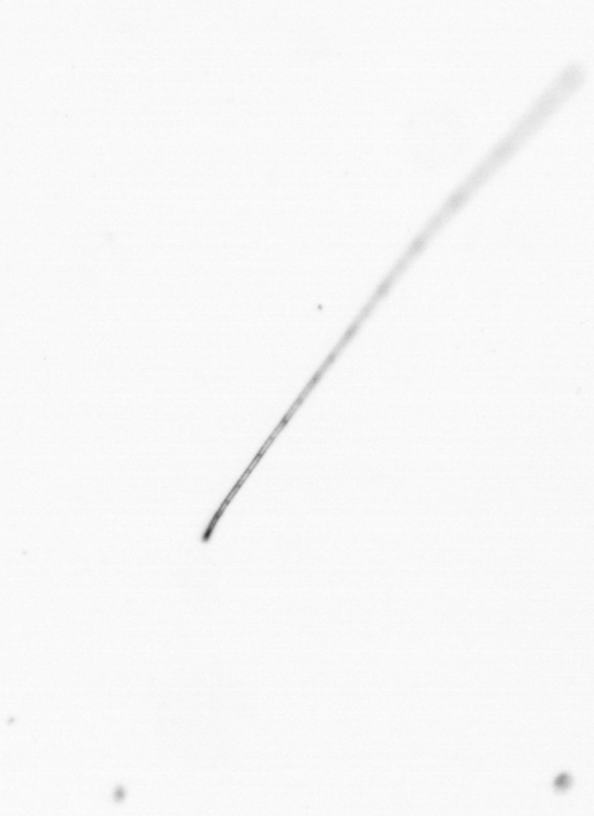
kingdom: Chromista
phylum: Ochrophyta
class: Bacillariophyceae
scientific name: Bacillariophyceae
